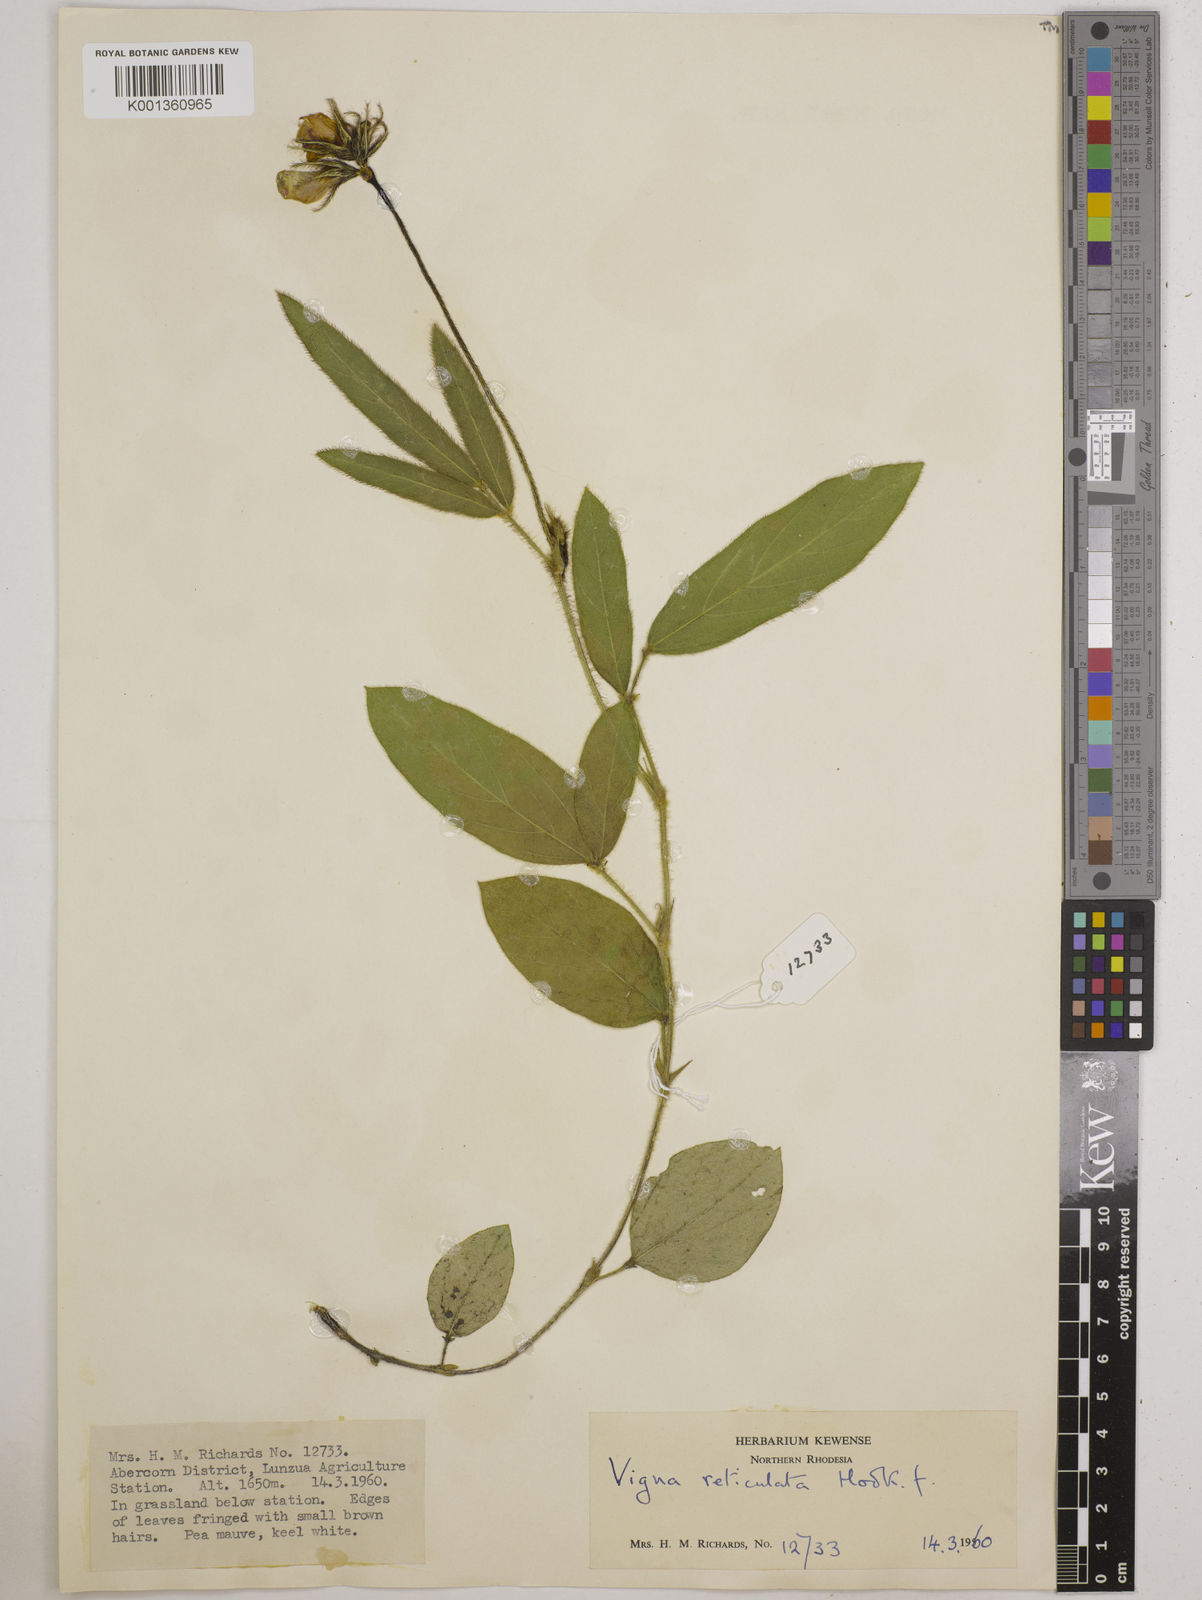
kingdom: Plantae
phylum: Tracheophyta
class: Magnoliopsida
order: Fabales
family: Fabaceae
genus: Vigna
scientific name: Vigna reticulata
